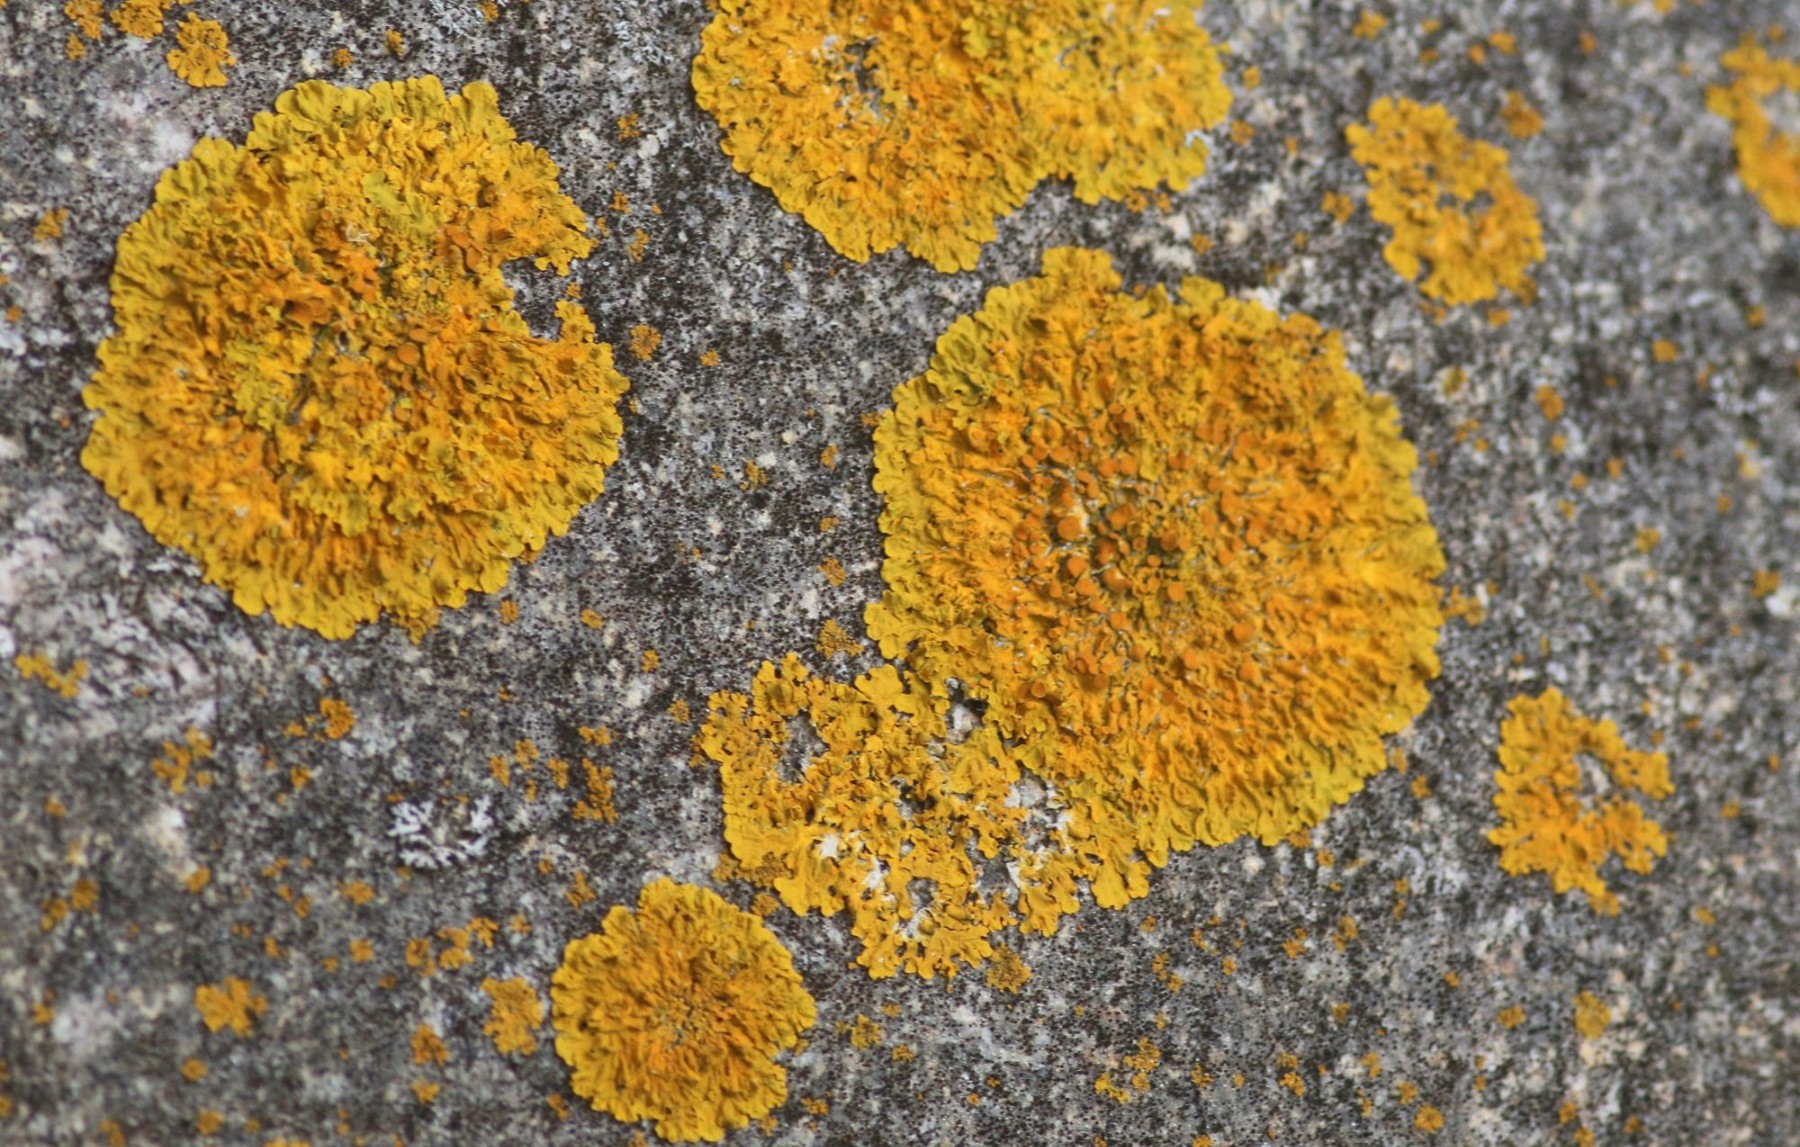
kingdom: Fungi
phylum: Ascomycota
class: Lecanoromycetes
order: Teloschistales
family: Teloschistaceae
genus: Xanthoria
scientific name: Xanthoria parietina
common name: almindelig væggelav
